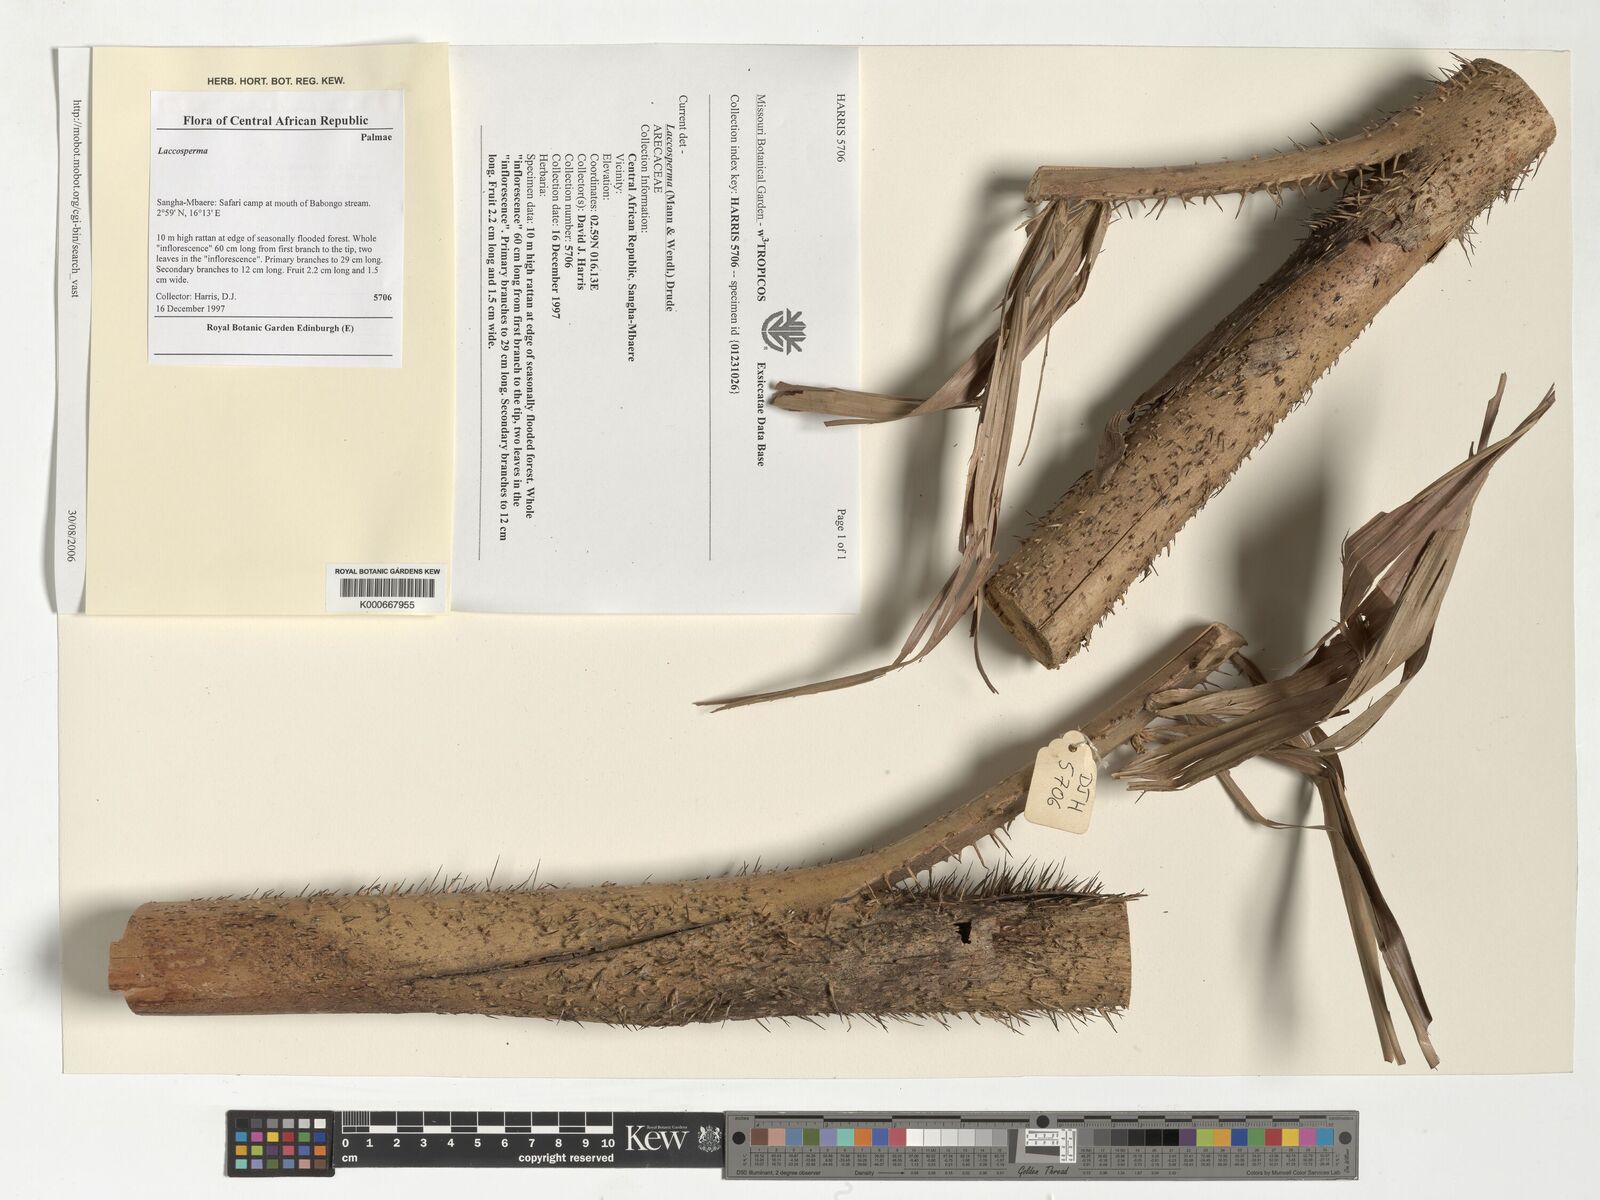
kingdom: Plantae
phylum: Tracheophyta
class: Liliopsida
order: Arecales
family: Arecaceae
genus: Laccosperma
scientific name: Laccosperma
